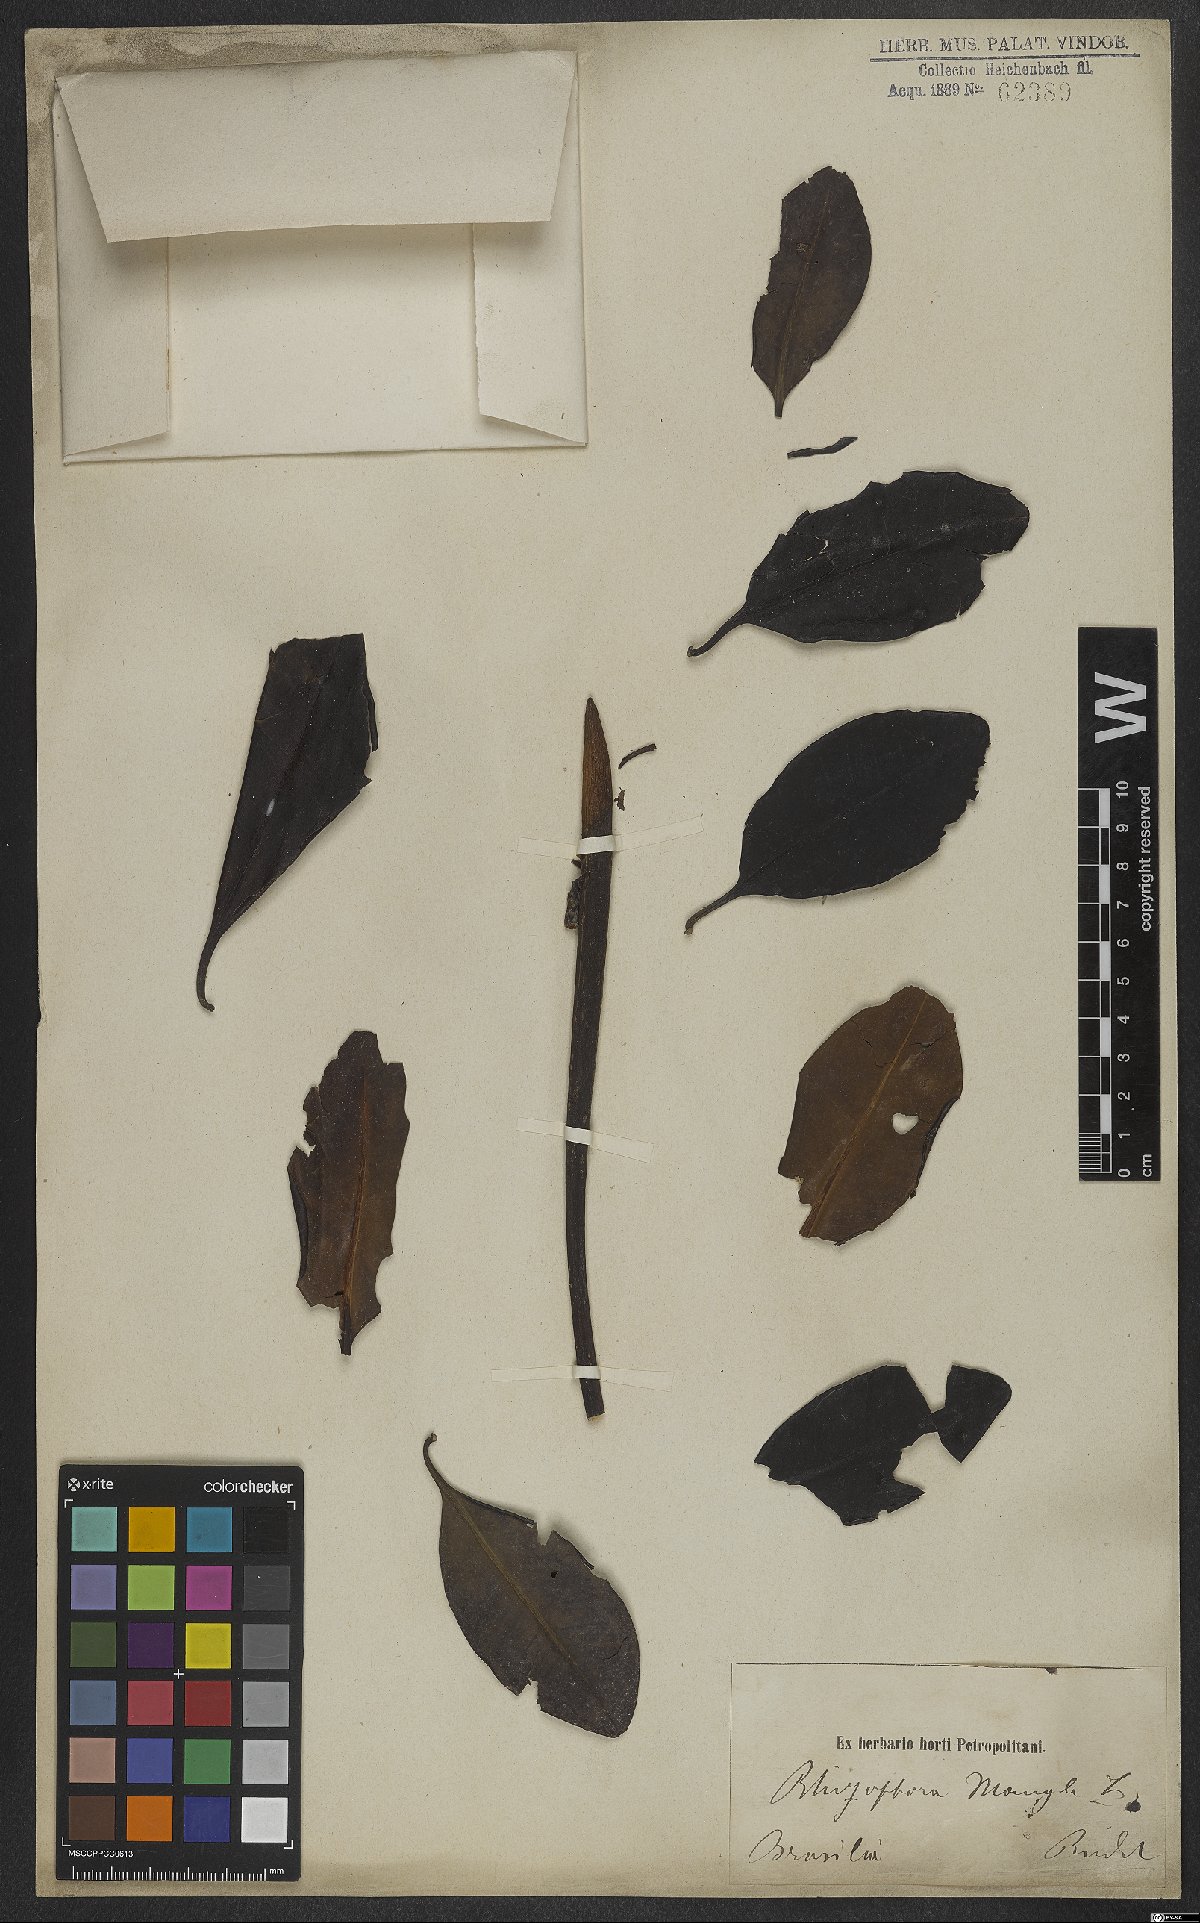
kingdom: Plantae
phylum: Tracheophyta
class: Magnoliopsida
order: Malpighiales
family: Rhizophoraceae
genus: Rhizophora
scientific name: Rhizophora mangle
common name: Red mangrove
